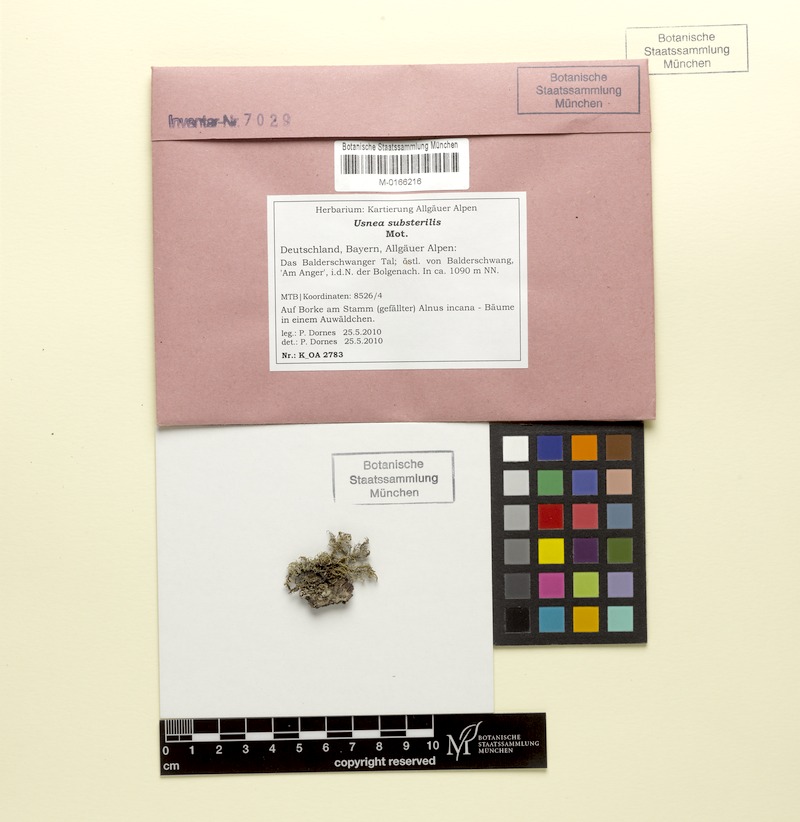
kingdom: Fungi
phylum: Ascomycota
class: Lecanoromycetes
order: Lecanorales
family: Parmeliaceae
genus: Usnea
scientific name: Usnea substerilis
